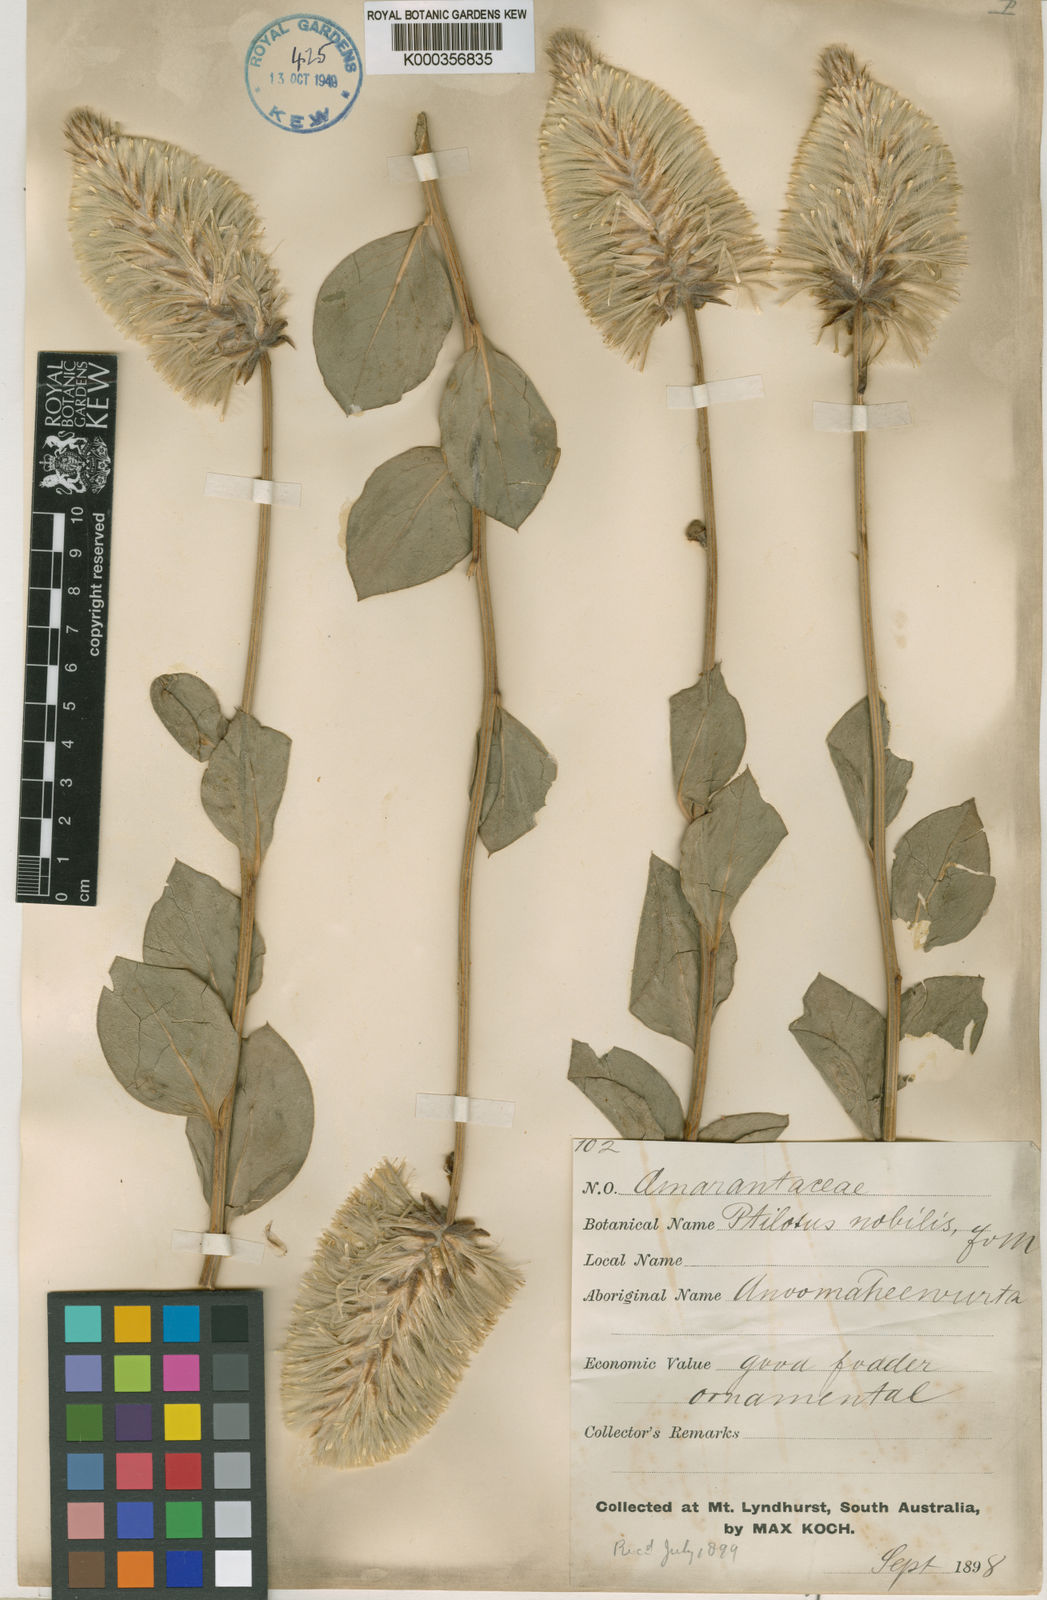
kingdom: Plantae
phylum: Tracheophyta
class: Magnoliopsida
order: Caryophyllales
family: Amaranthaceae
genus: Ptilotus
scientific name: Ptilotus nobilis
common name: Regal-foxtail
